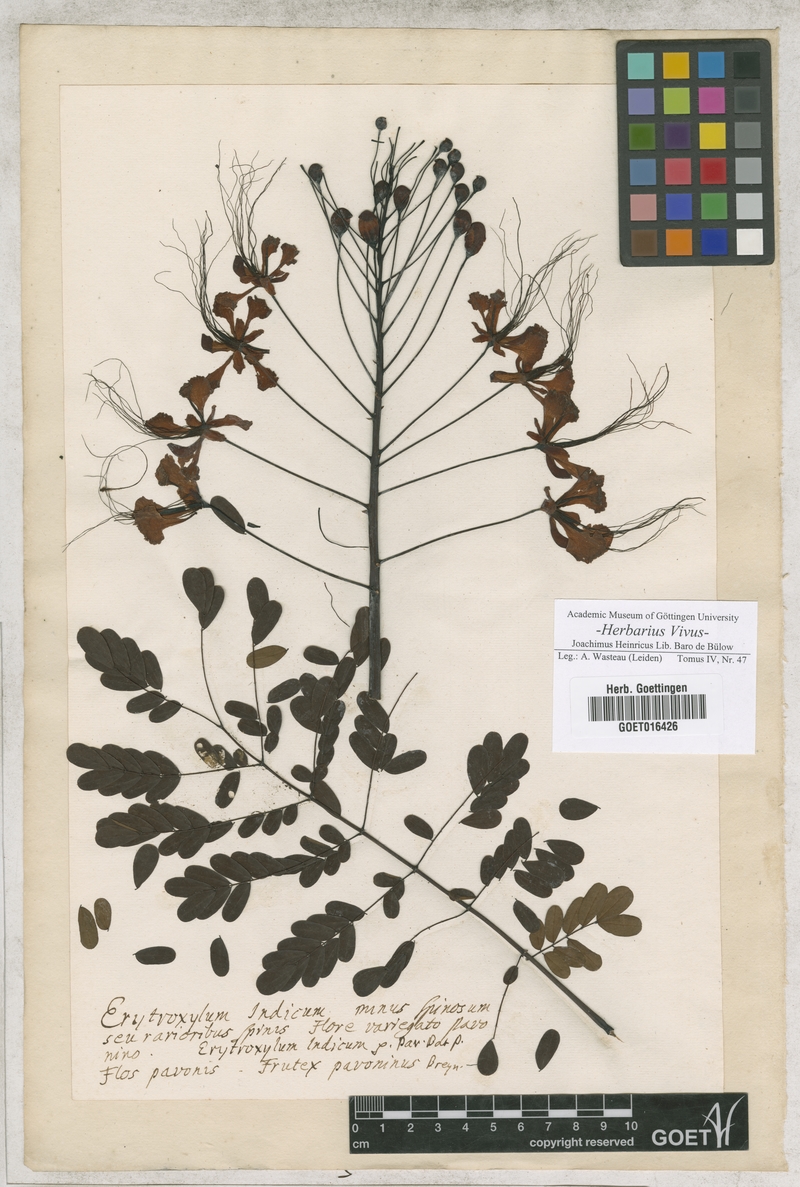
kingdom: Plantae
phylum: Tracheophyta
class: Magnoliopsida
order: Fabales
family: Fabaceae
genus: Caesalpinia
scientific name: Caesalpinia pulcherrima
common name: Pride-of-barbados
